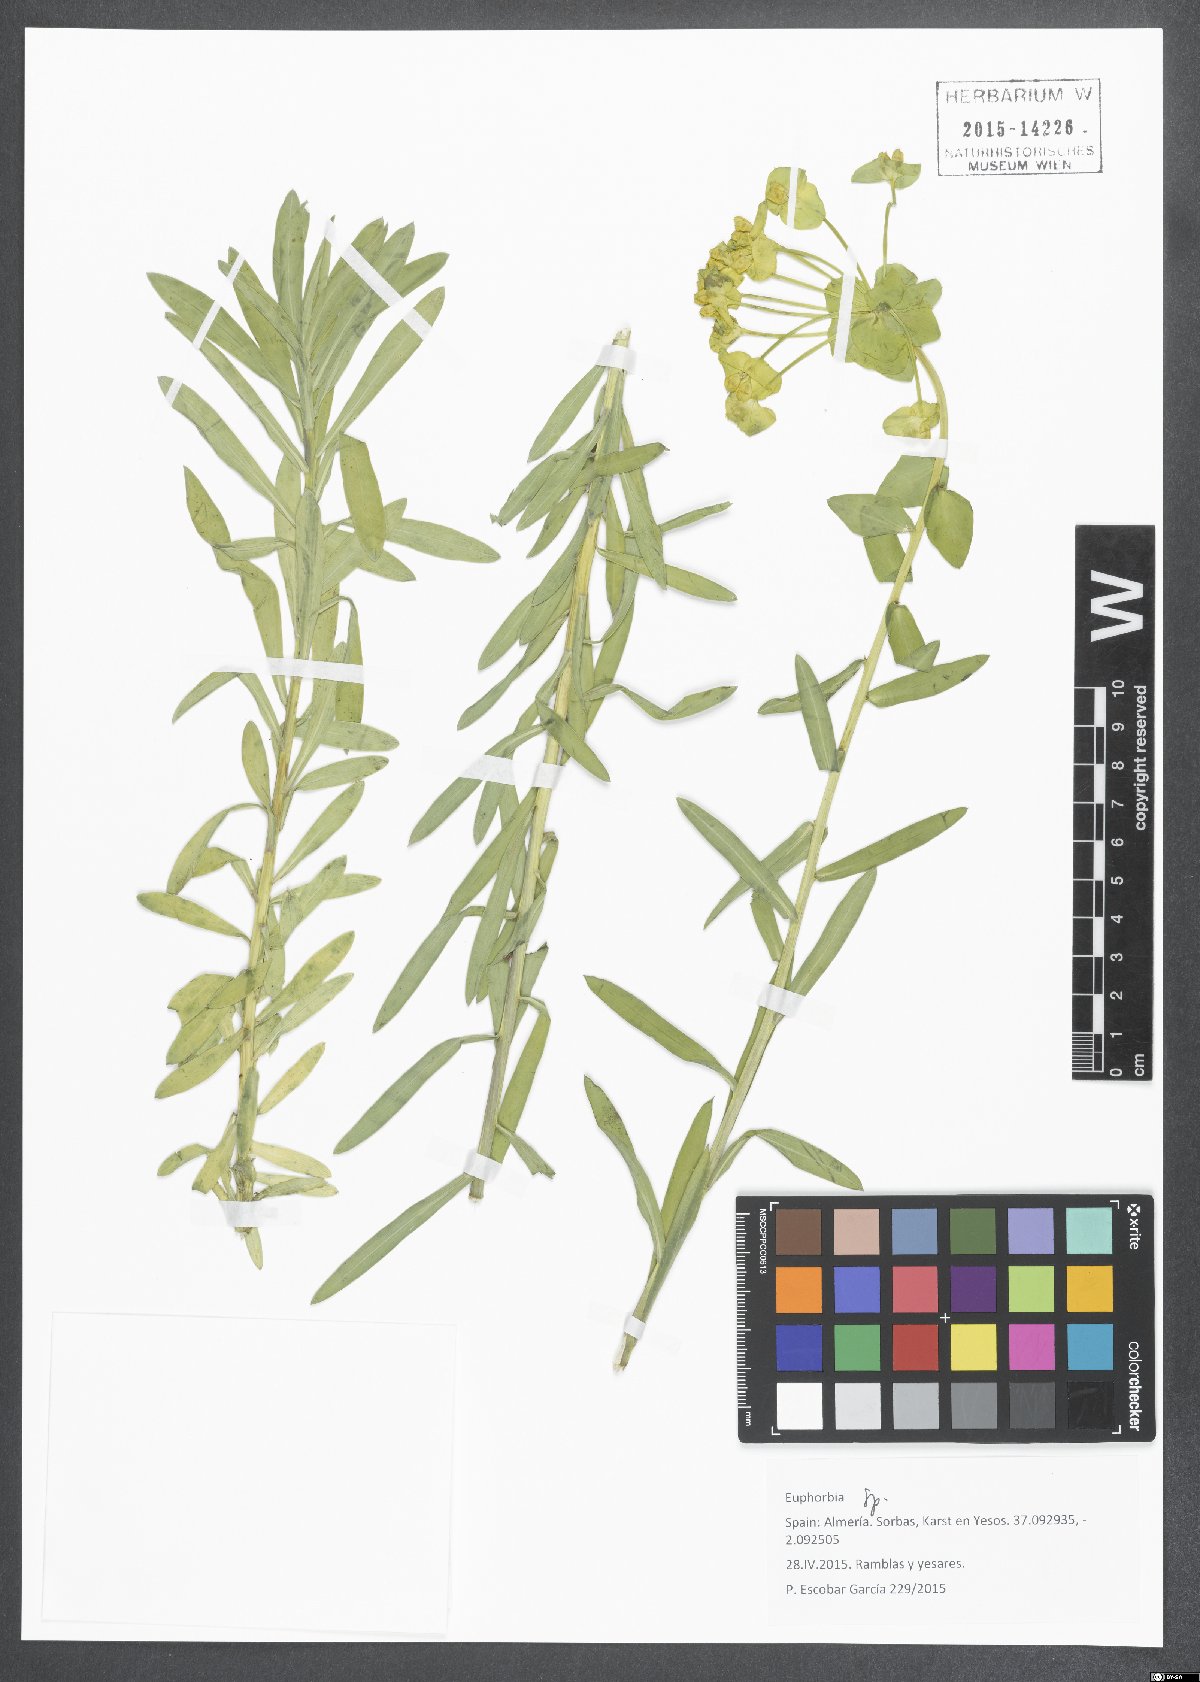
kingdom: Plantae
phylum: Tracheophyta
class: Magnoliopsida
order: Malpighiales
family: Euphorbiaceae
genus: Euphorbia
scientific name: Euphorbia
